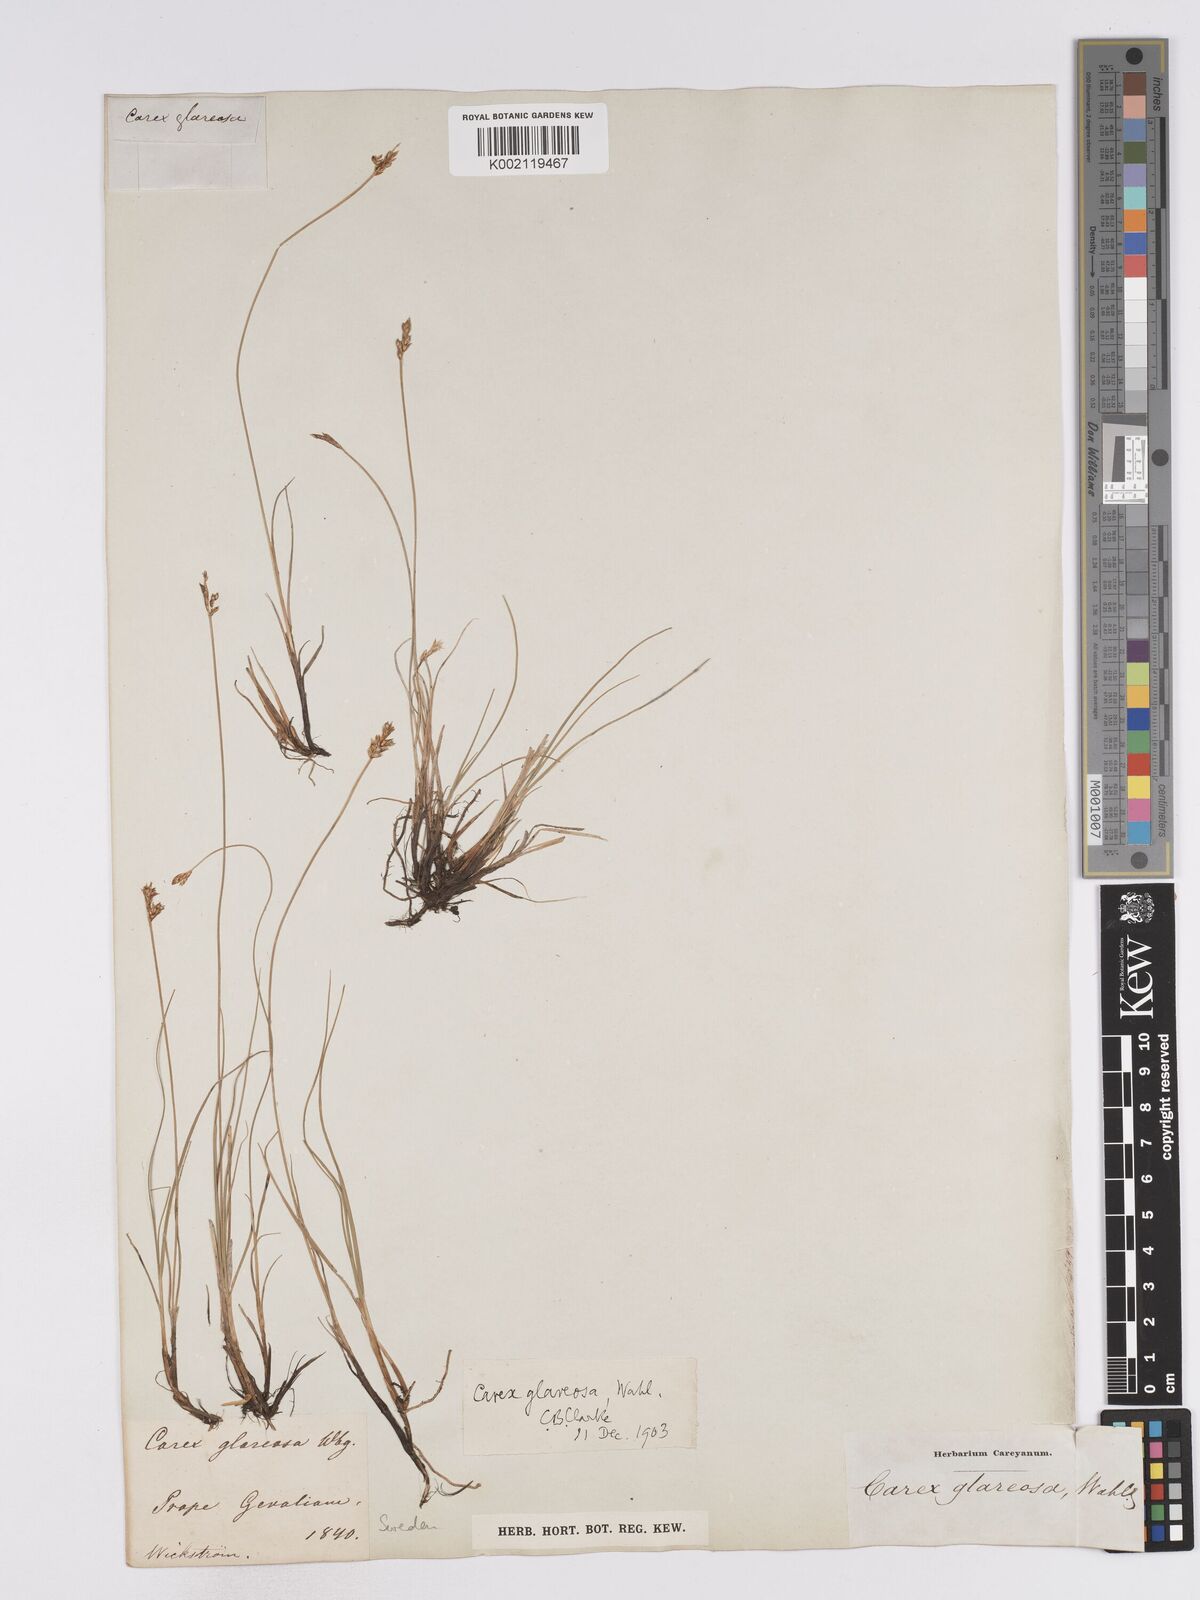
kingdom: Plantae
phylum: Tracheophyta
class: Liliopsida
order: Poales
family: Cyperaceae
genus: Carex
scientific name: Carex glareosa
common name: Clustered sedge
